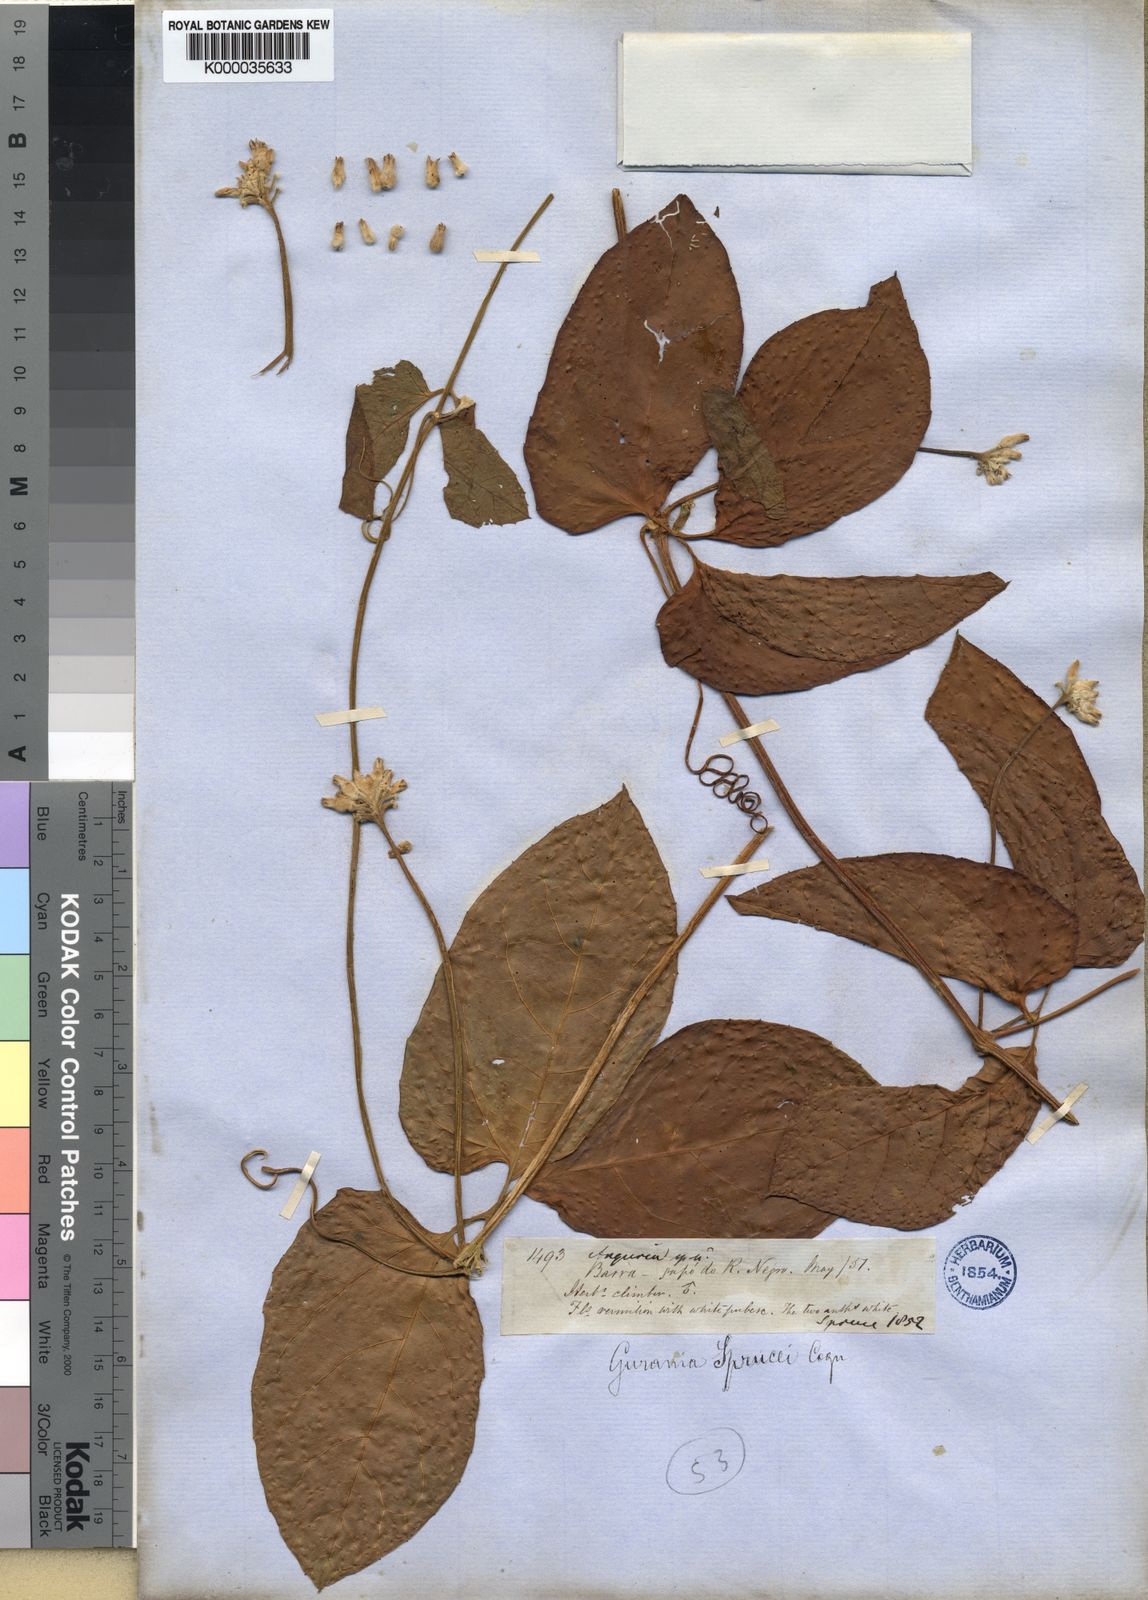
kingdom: Plantae
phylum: Tracheophyta
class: Magnoliopsida
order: Cucurbitales
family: Cucurbitaceae
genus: Gurania
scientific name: Gurania spruceana
